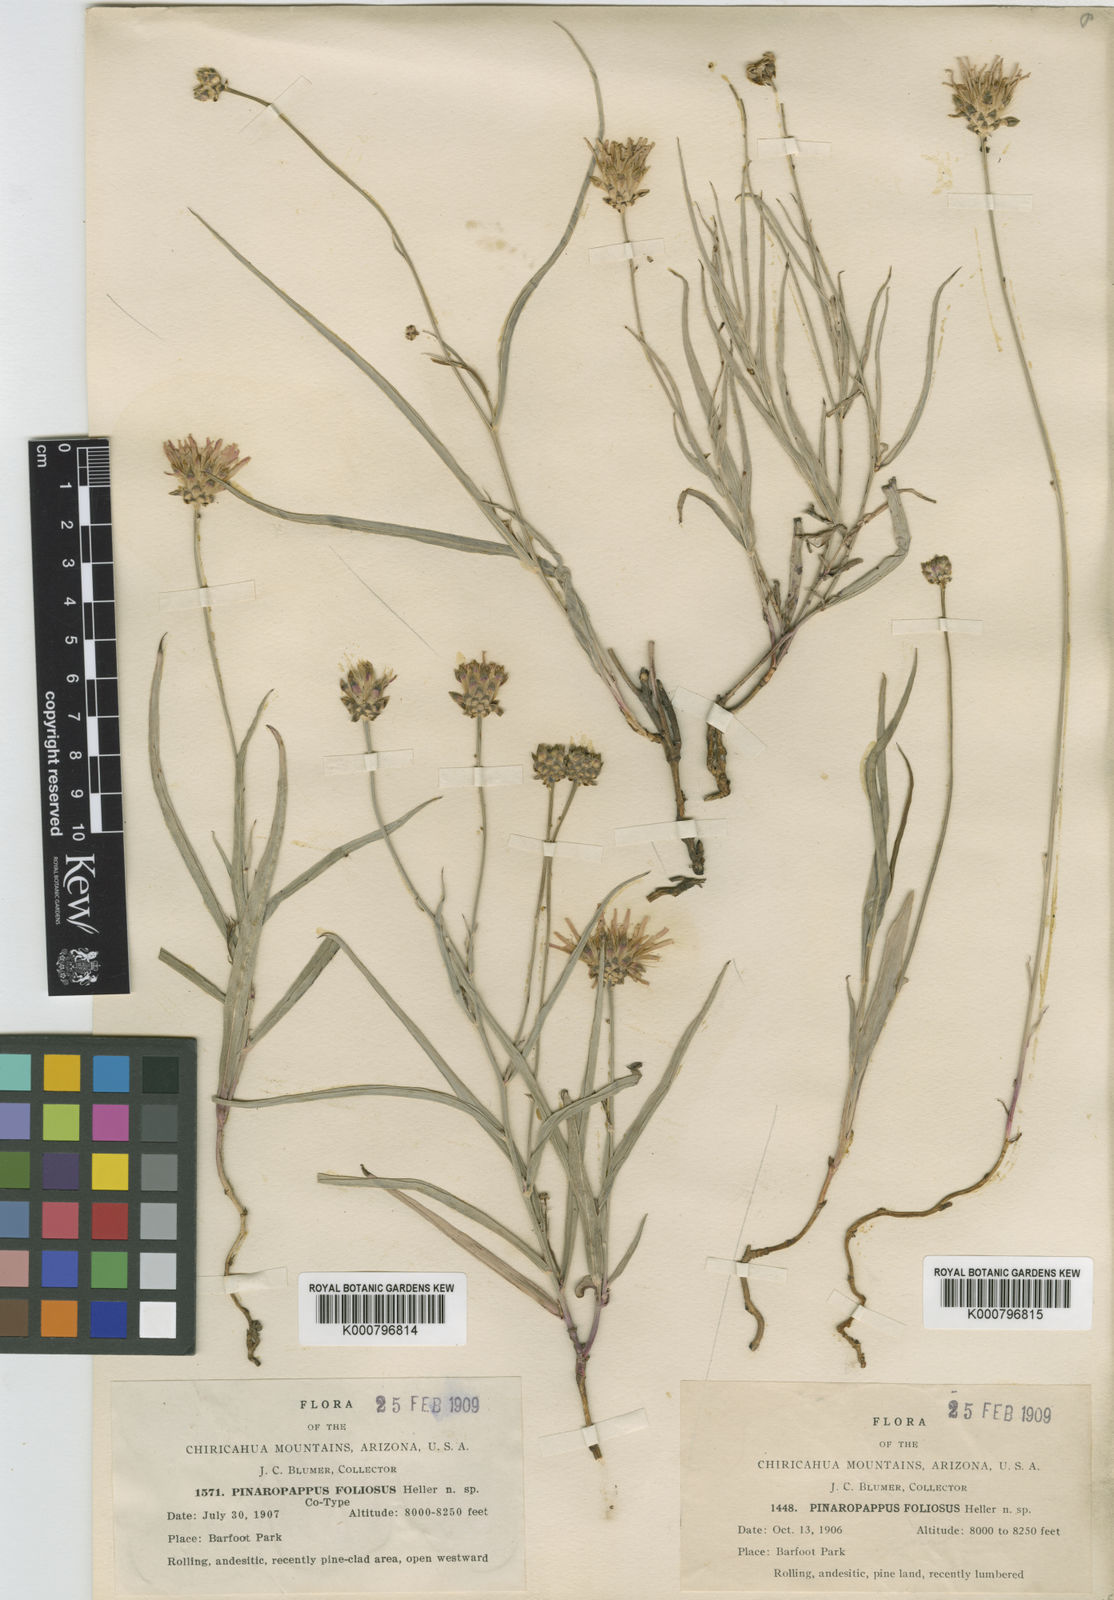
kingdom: Plantae
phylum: Tracheophyta
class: Magnoliopsida
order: Asterales
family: Asteraceae
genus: Pinaropappus
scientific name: Pinaropappus
